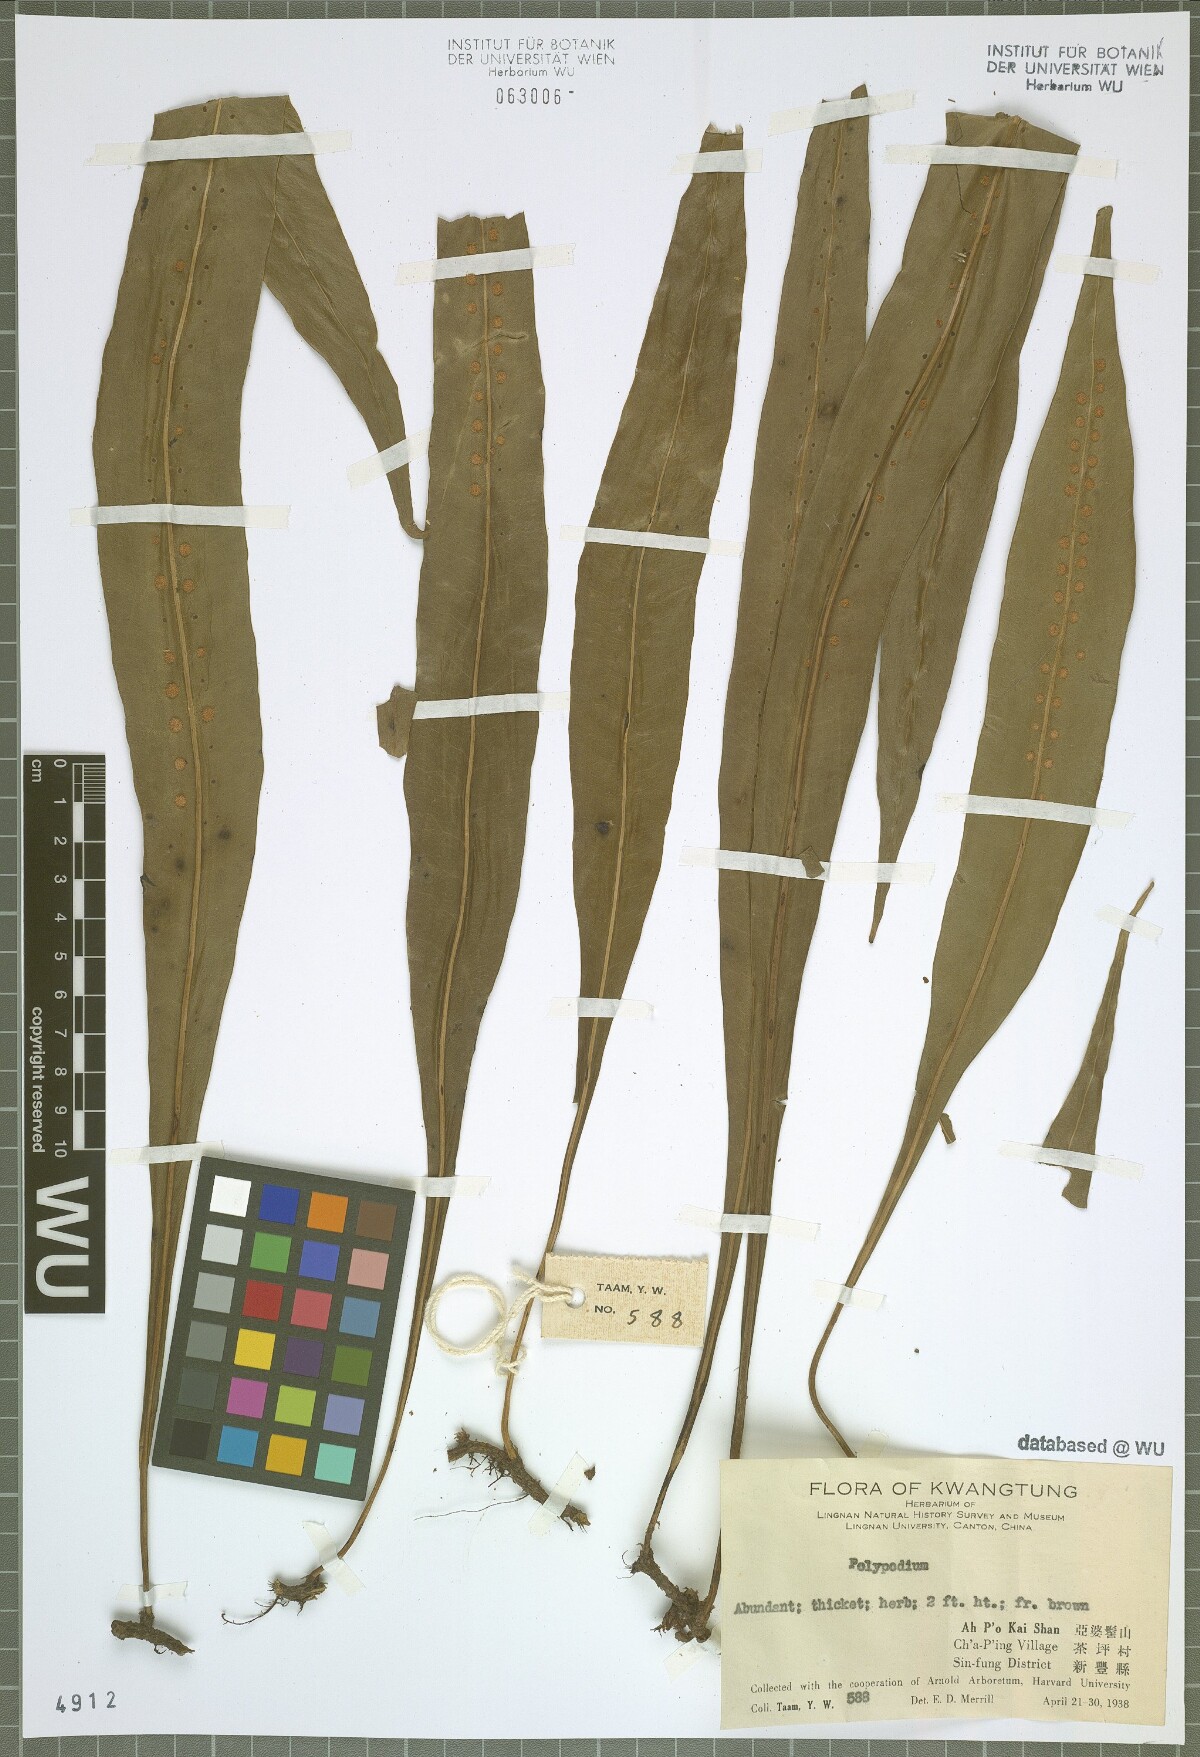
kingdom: Plantae
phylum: Tracheophyta
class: Polypodiopsida
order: Polypodiales
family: Polypodiaceae
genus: Polypodium
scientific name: Polypodium
